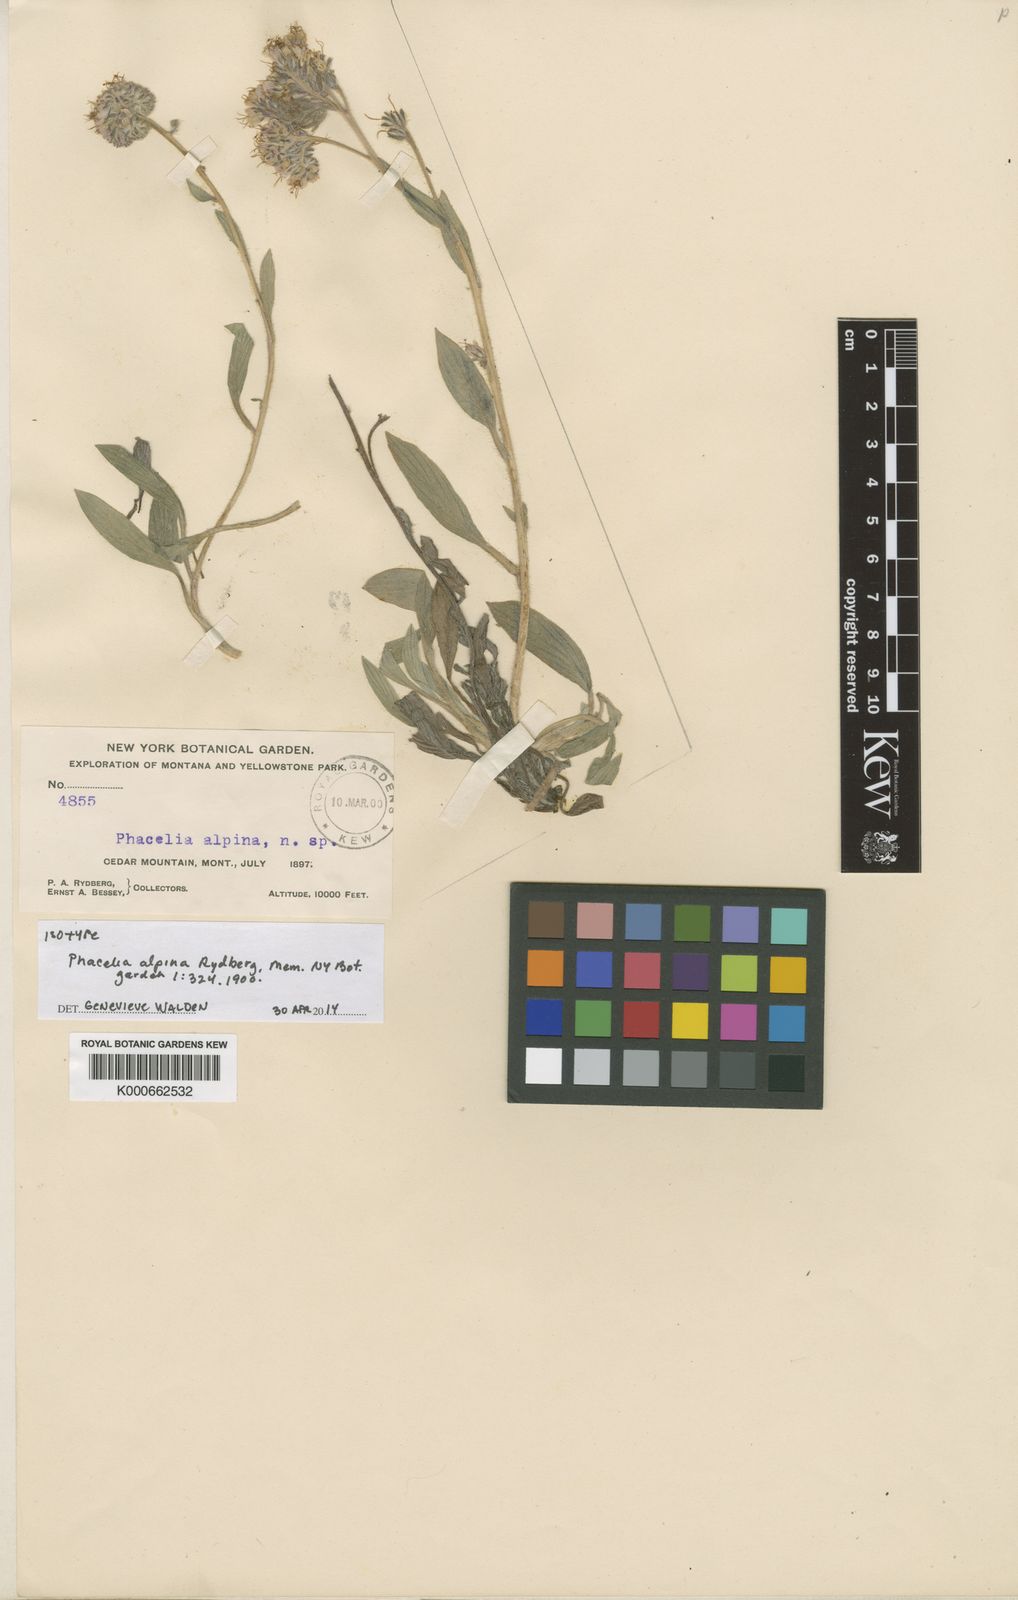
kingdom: Plantae
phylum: Tracheophyta
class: Magnoliopsida
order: Boraginales
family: Hydrophyllaceae
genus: Phacelia
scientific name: Phacelia hastata
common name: Silver-leaved phacelia
